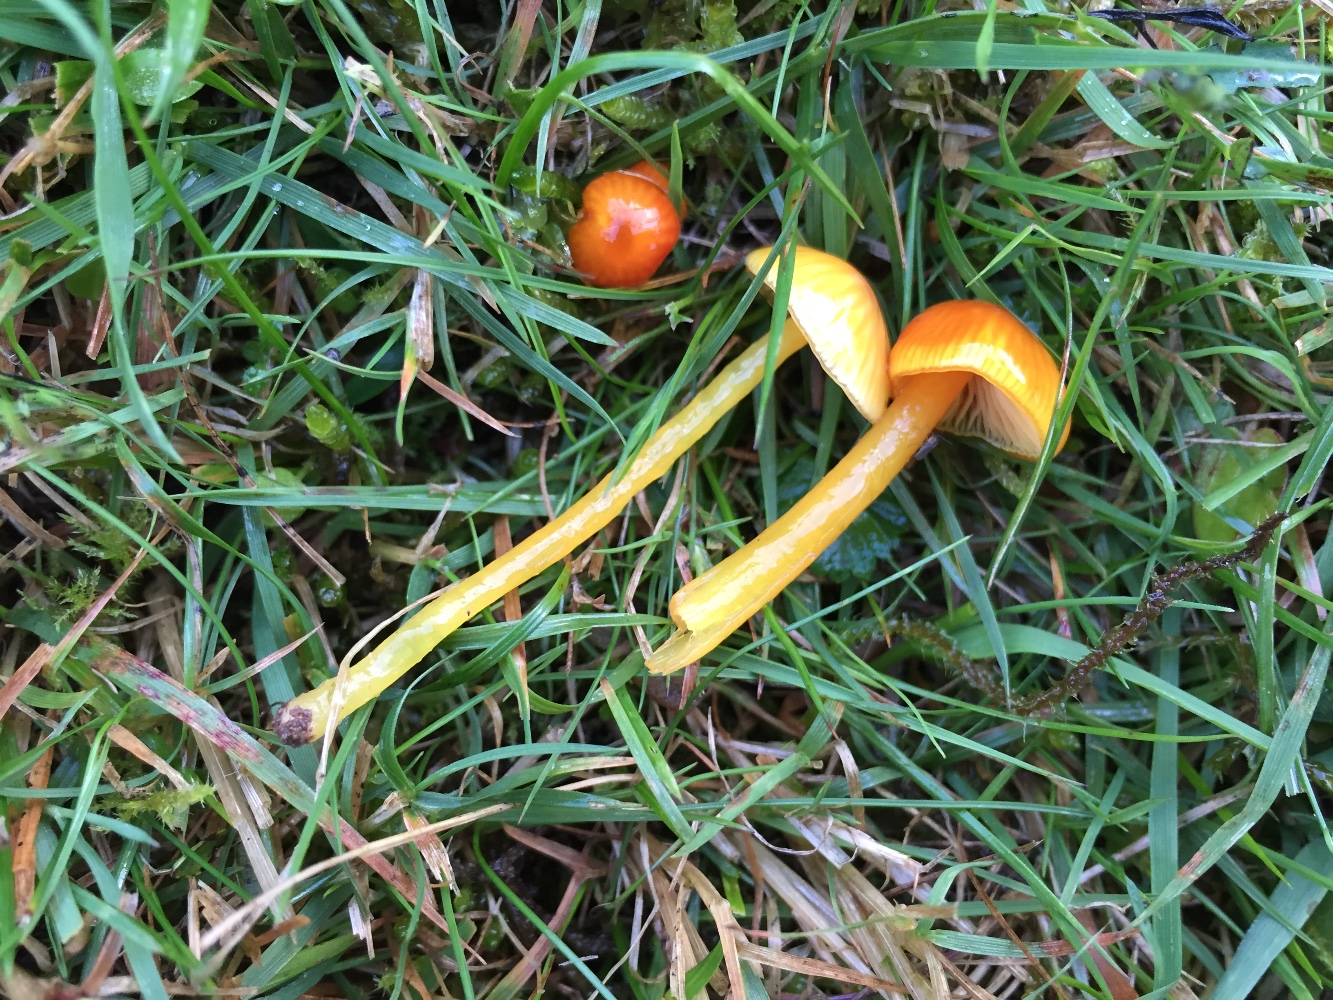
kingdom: Fungi
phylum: Basidiomycota
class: Agaricomycetes
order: Agaricales
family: Hygrophoraceae
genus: Hygrocybe
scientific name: Hygrocybe glutinipes
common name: slimstokket vokshat
